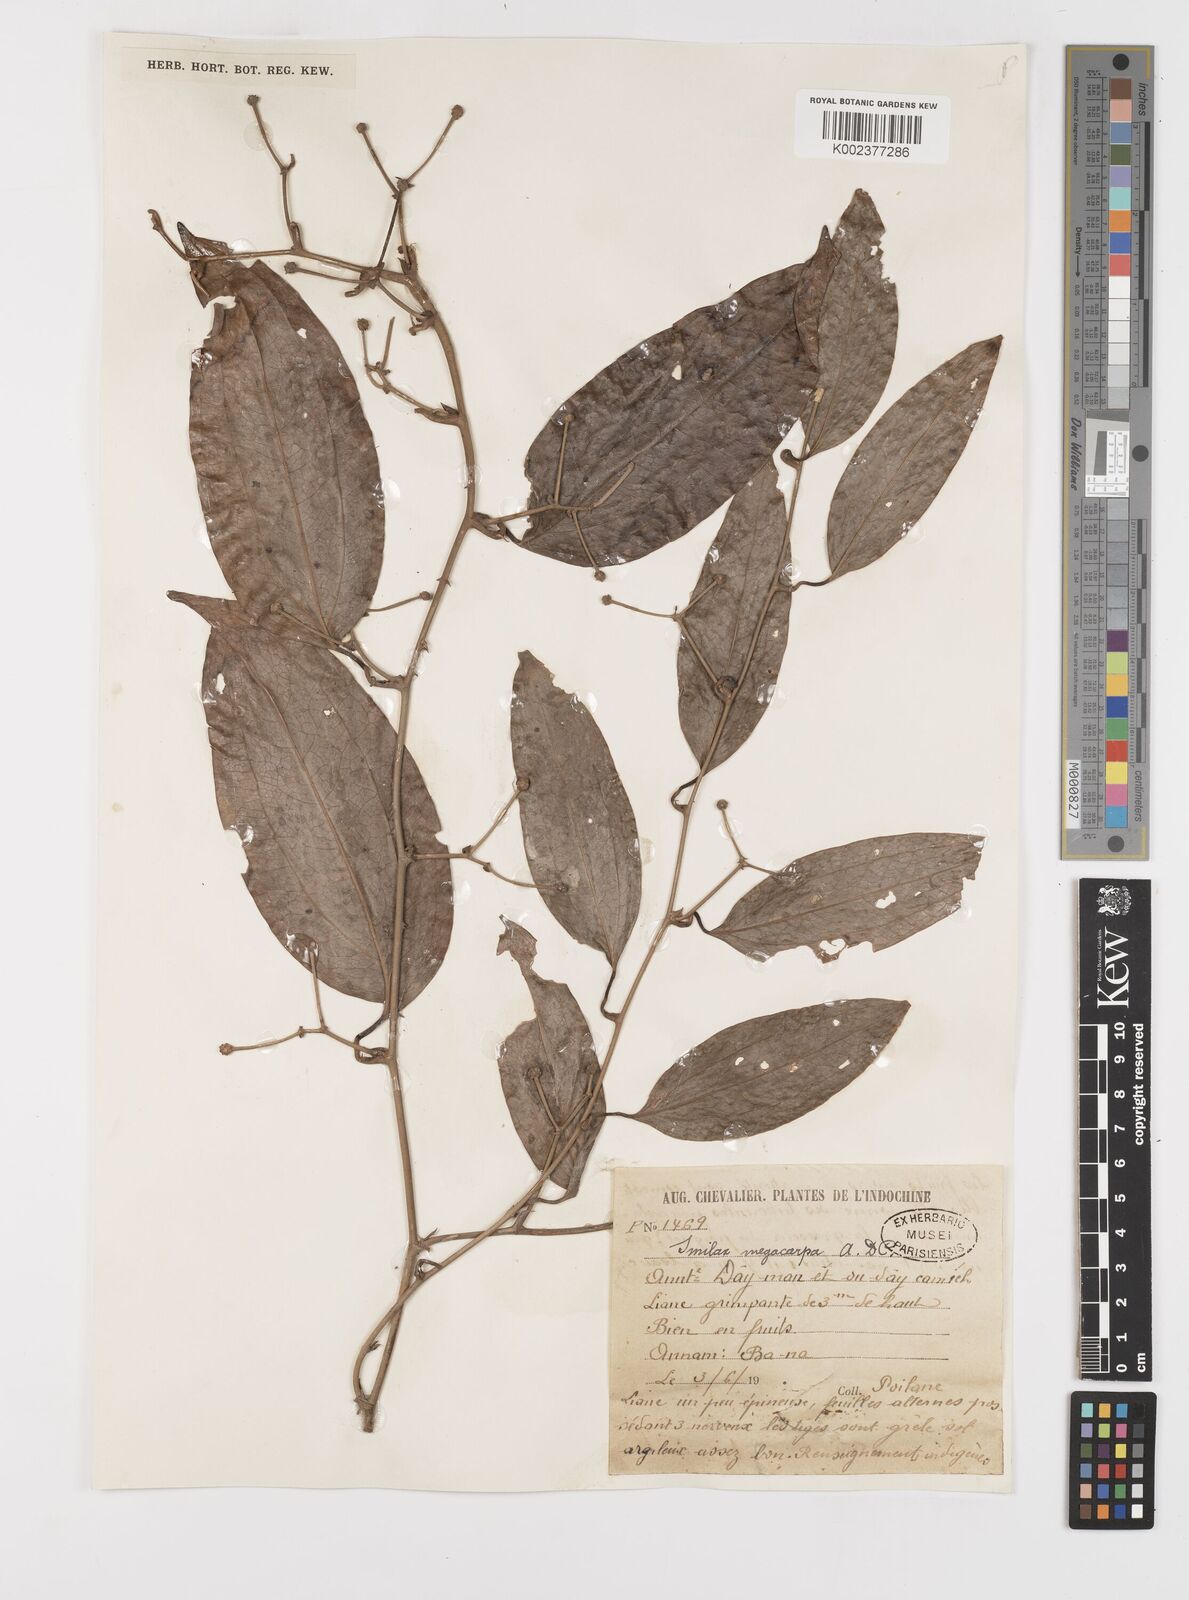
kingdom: Plantae
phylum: Tracheophyta
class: Liliopsida
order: Liliales
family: Smilacaceae
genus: Smilax
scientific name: Smilax megacarpa
